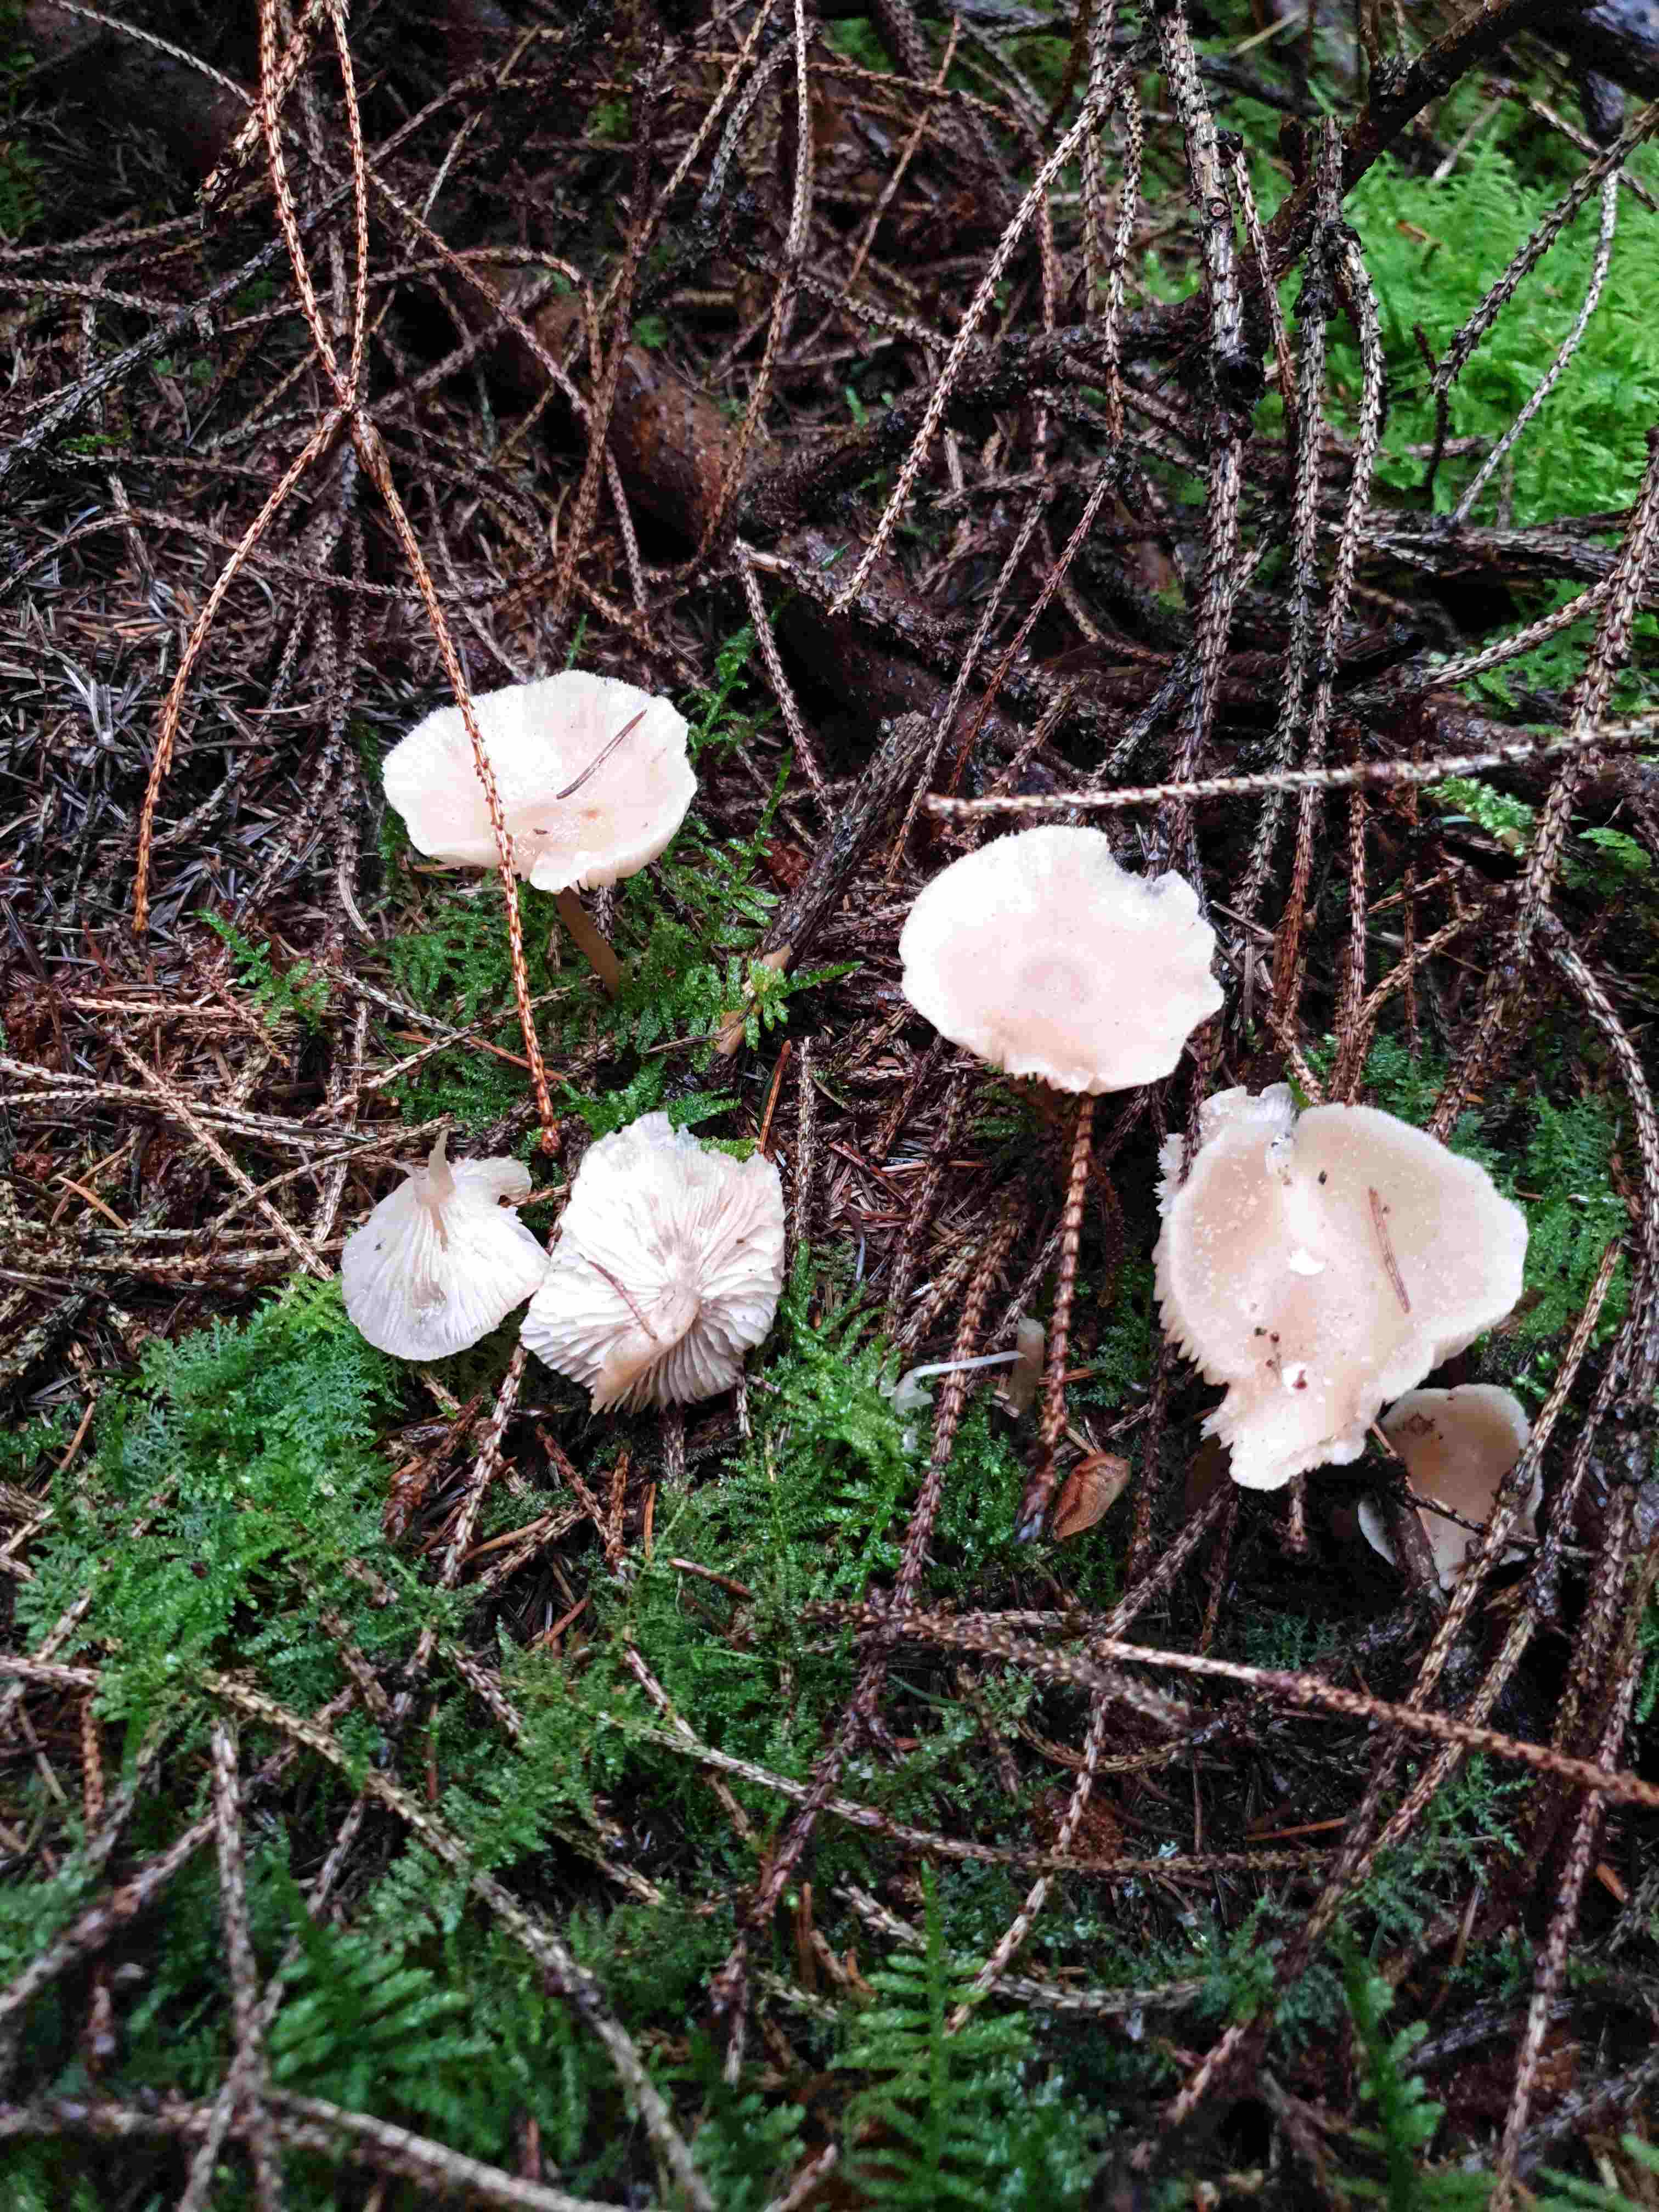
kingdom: Fungi
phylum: Basidiomycota
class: Agaricomycetes
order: Agaricales
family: Tricholomataceae
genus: Clitocybe
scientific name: Clitocybe fragrans
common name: vellugtende tragthat
